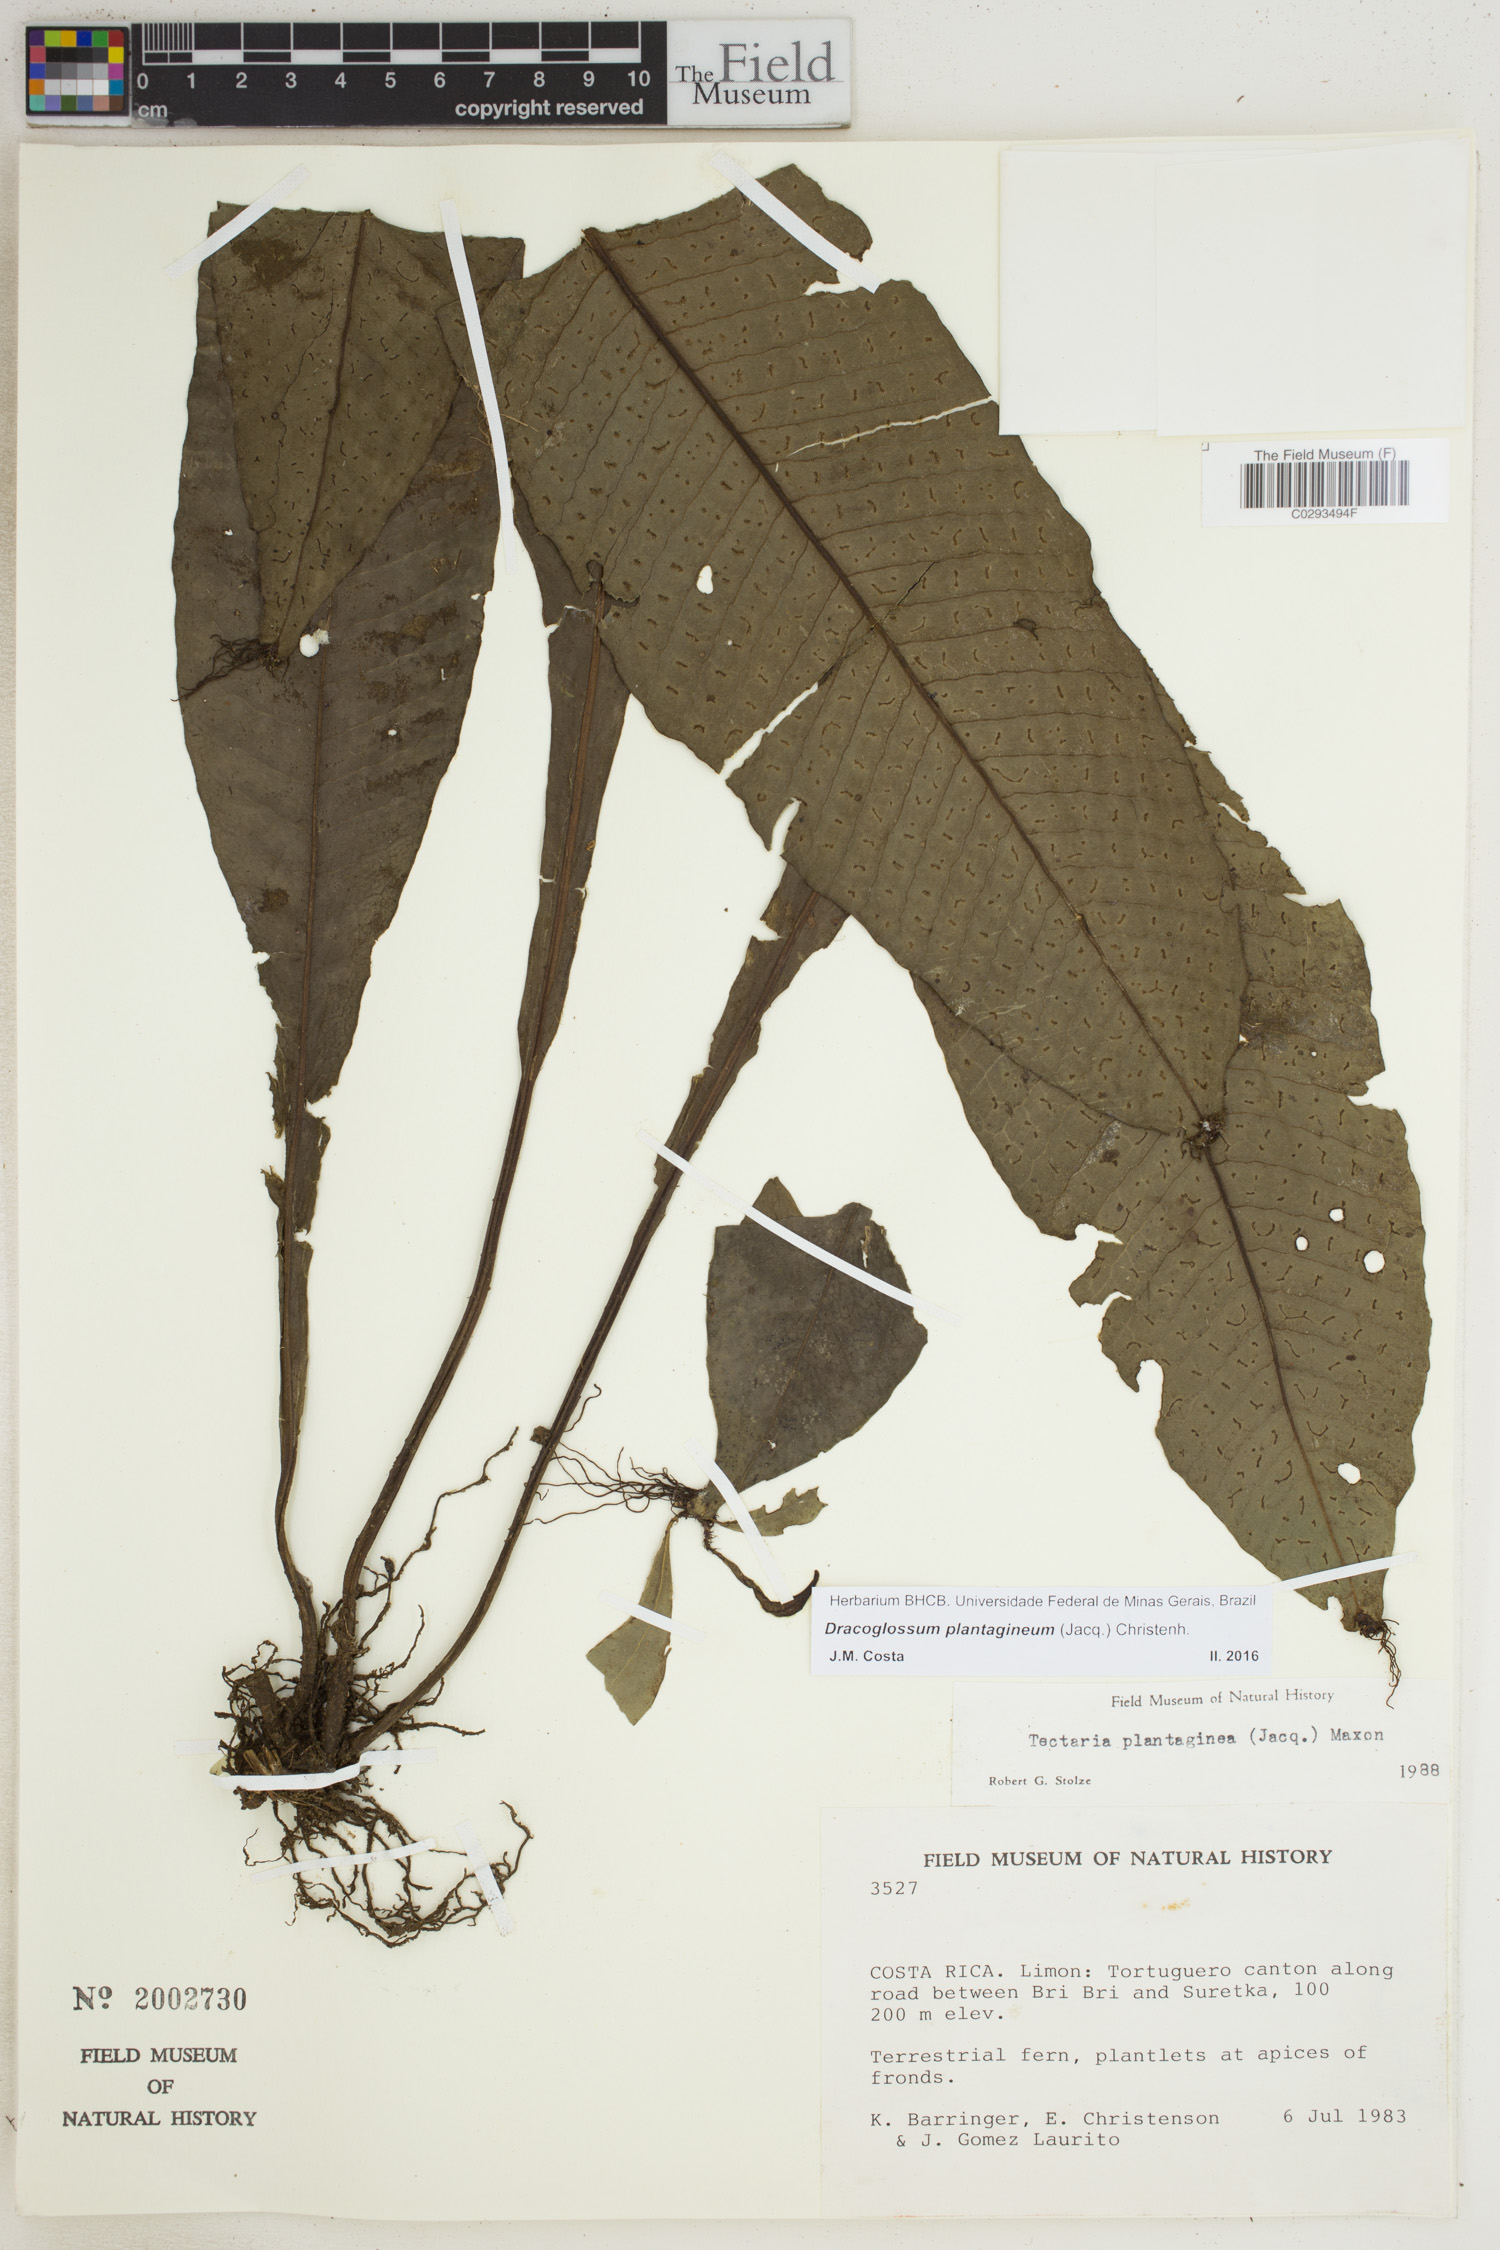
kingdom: Plantae
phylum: Tracheophyta
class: Polypodiopsida
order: Polypodiales
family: Lomariopsidaceae
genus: Dracoglossum
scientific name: Dracoglossum plantagineum
